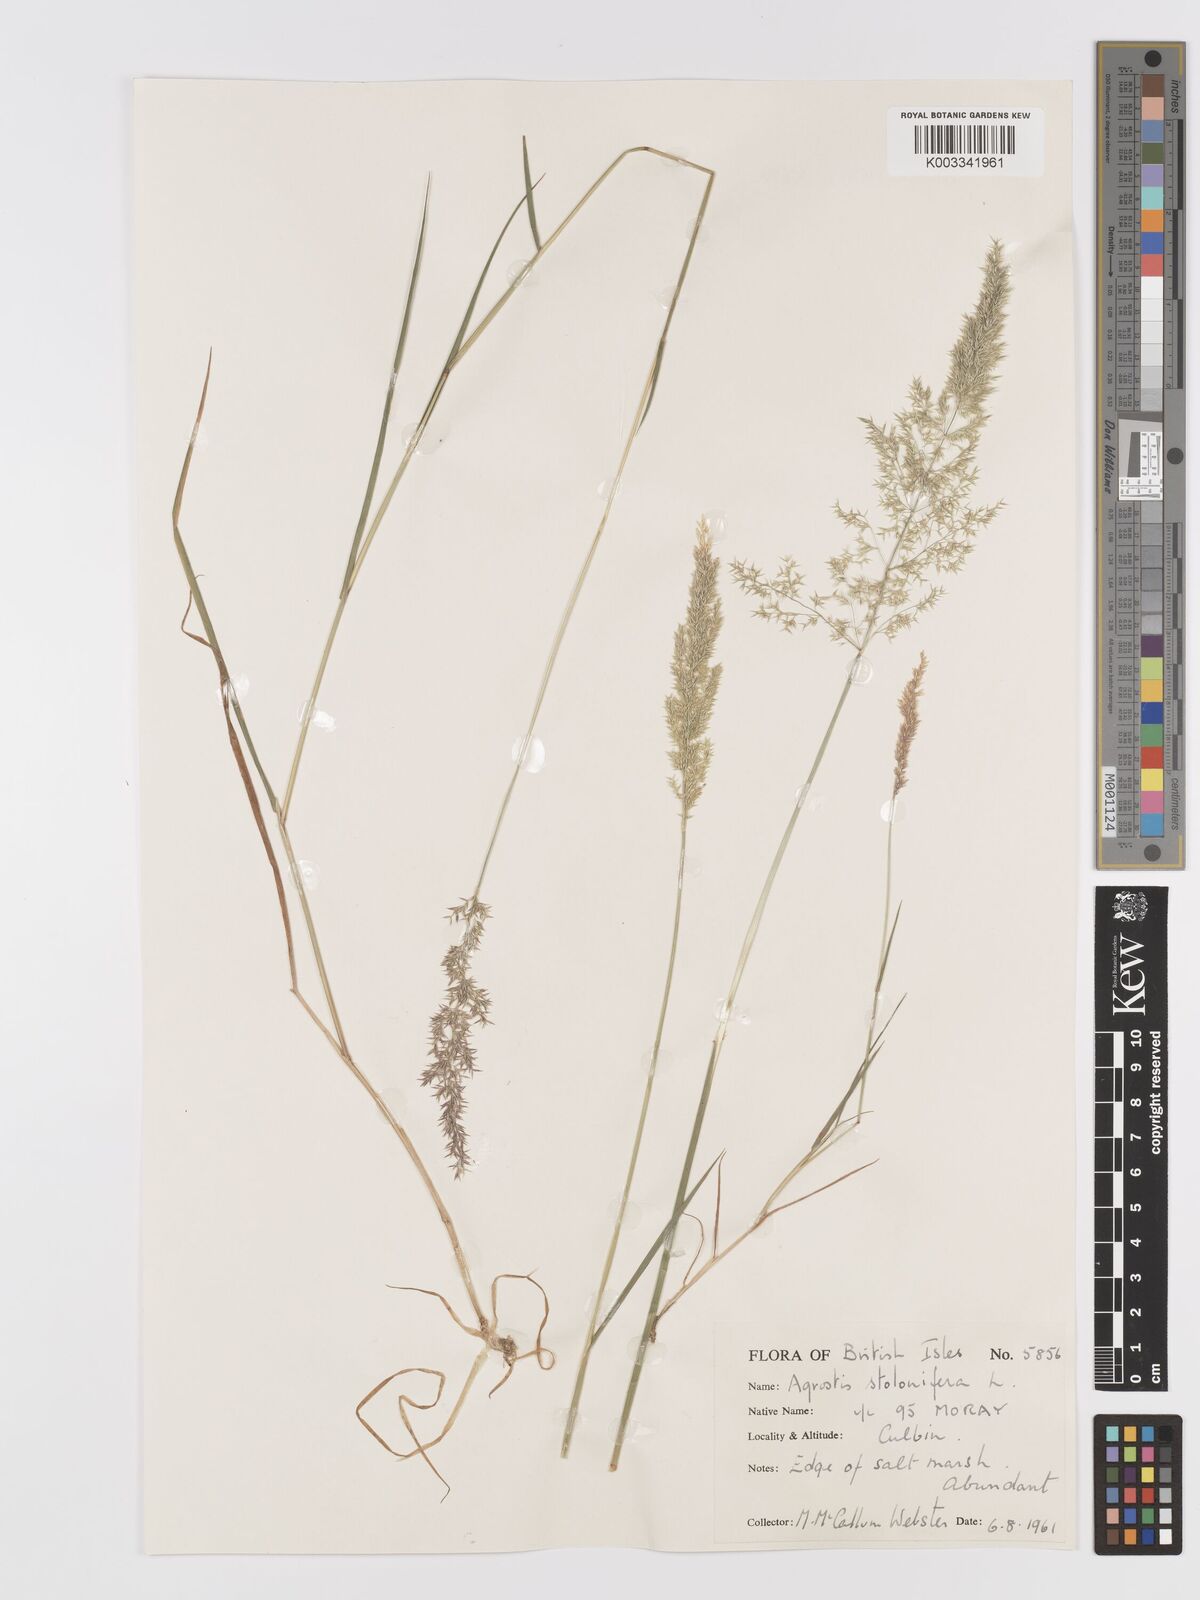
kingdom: Plantae
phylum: Tracheophyta
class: Liliopsida
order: Poales
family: Poaceae
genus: Agrostis
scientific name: Agrostis stolonifera
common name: Creeping bentgrass
